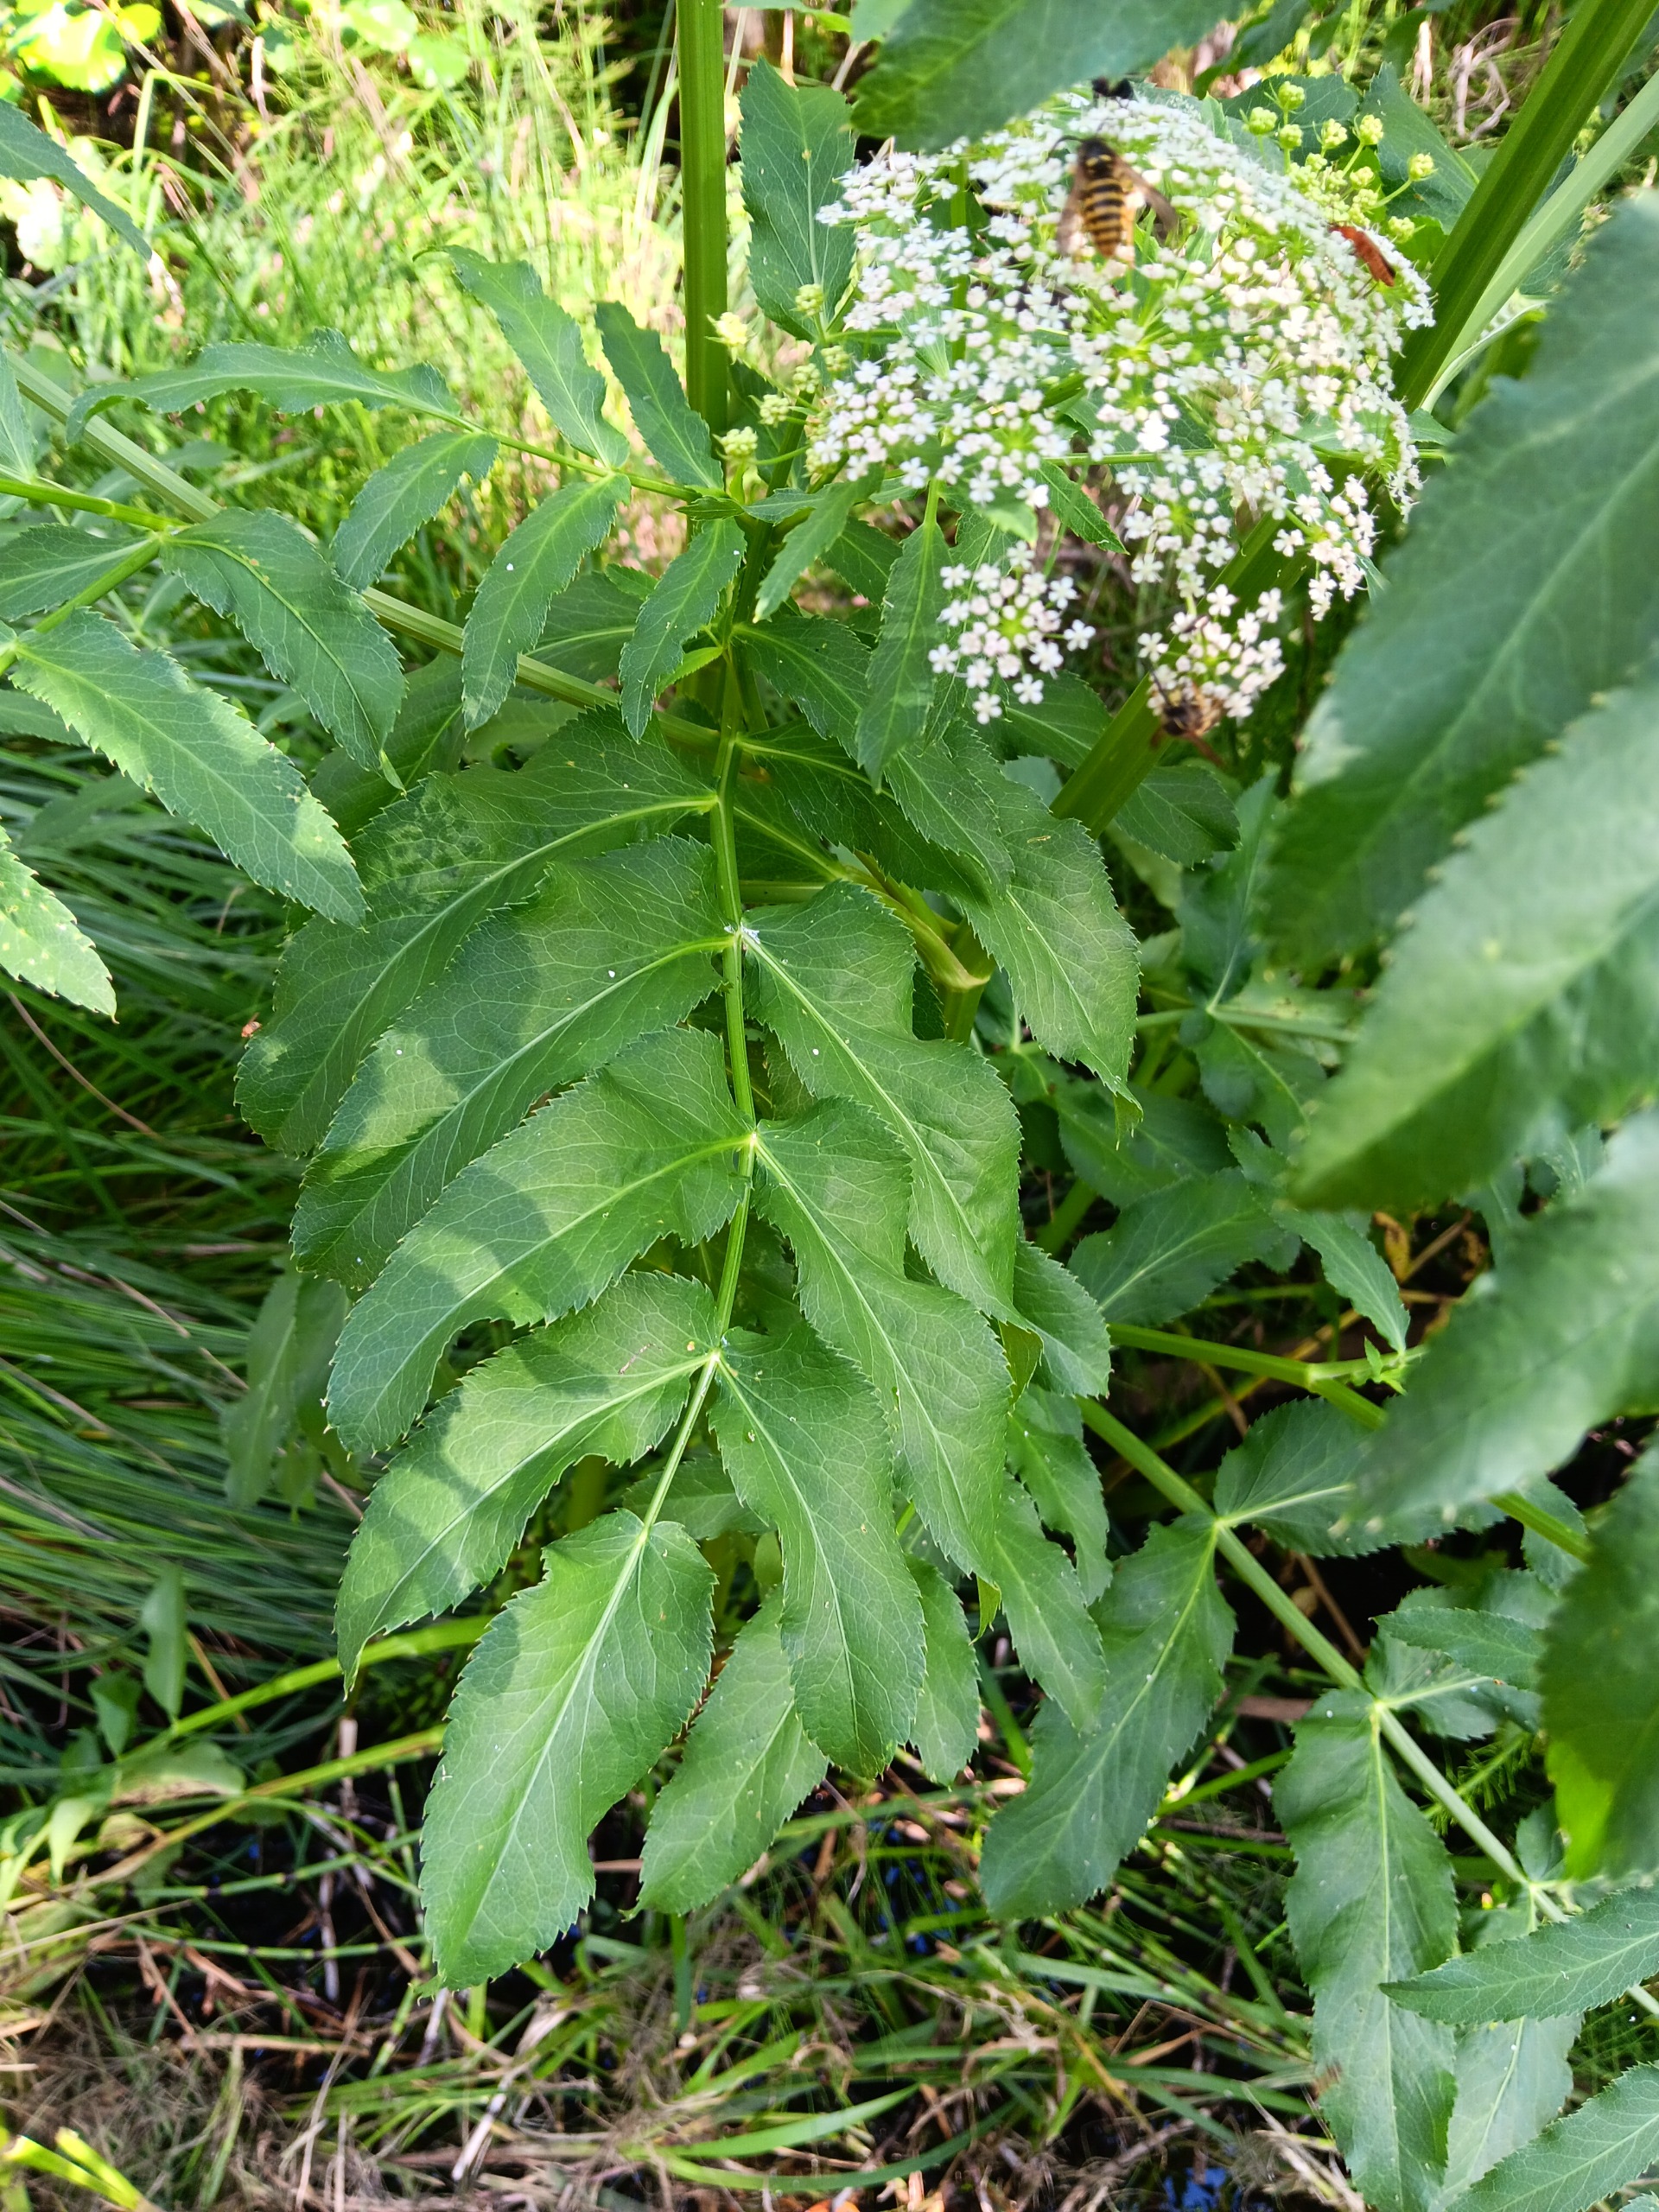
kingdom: Plantae
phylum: Tracheophyta
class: Magnoliopsida
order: Apiales
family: Apiaceae
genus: Sium
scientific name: Sium latifolium
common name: Bredbladet mærke
